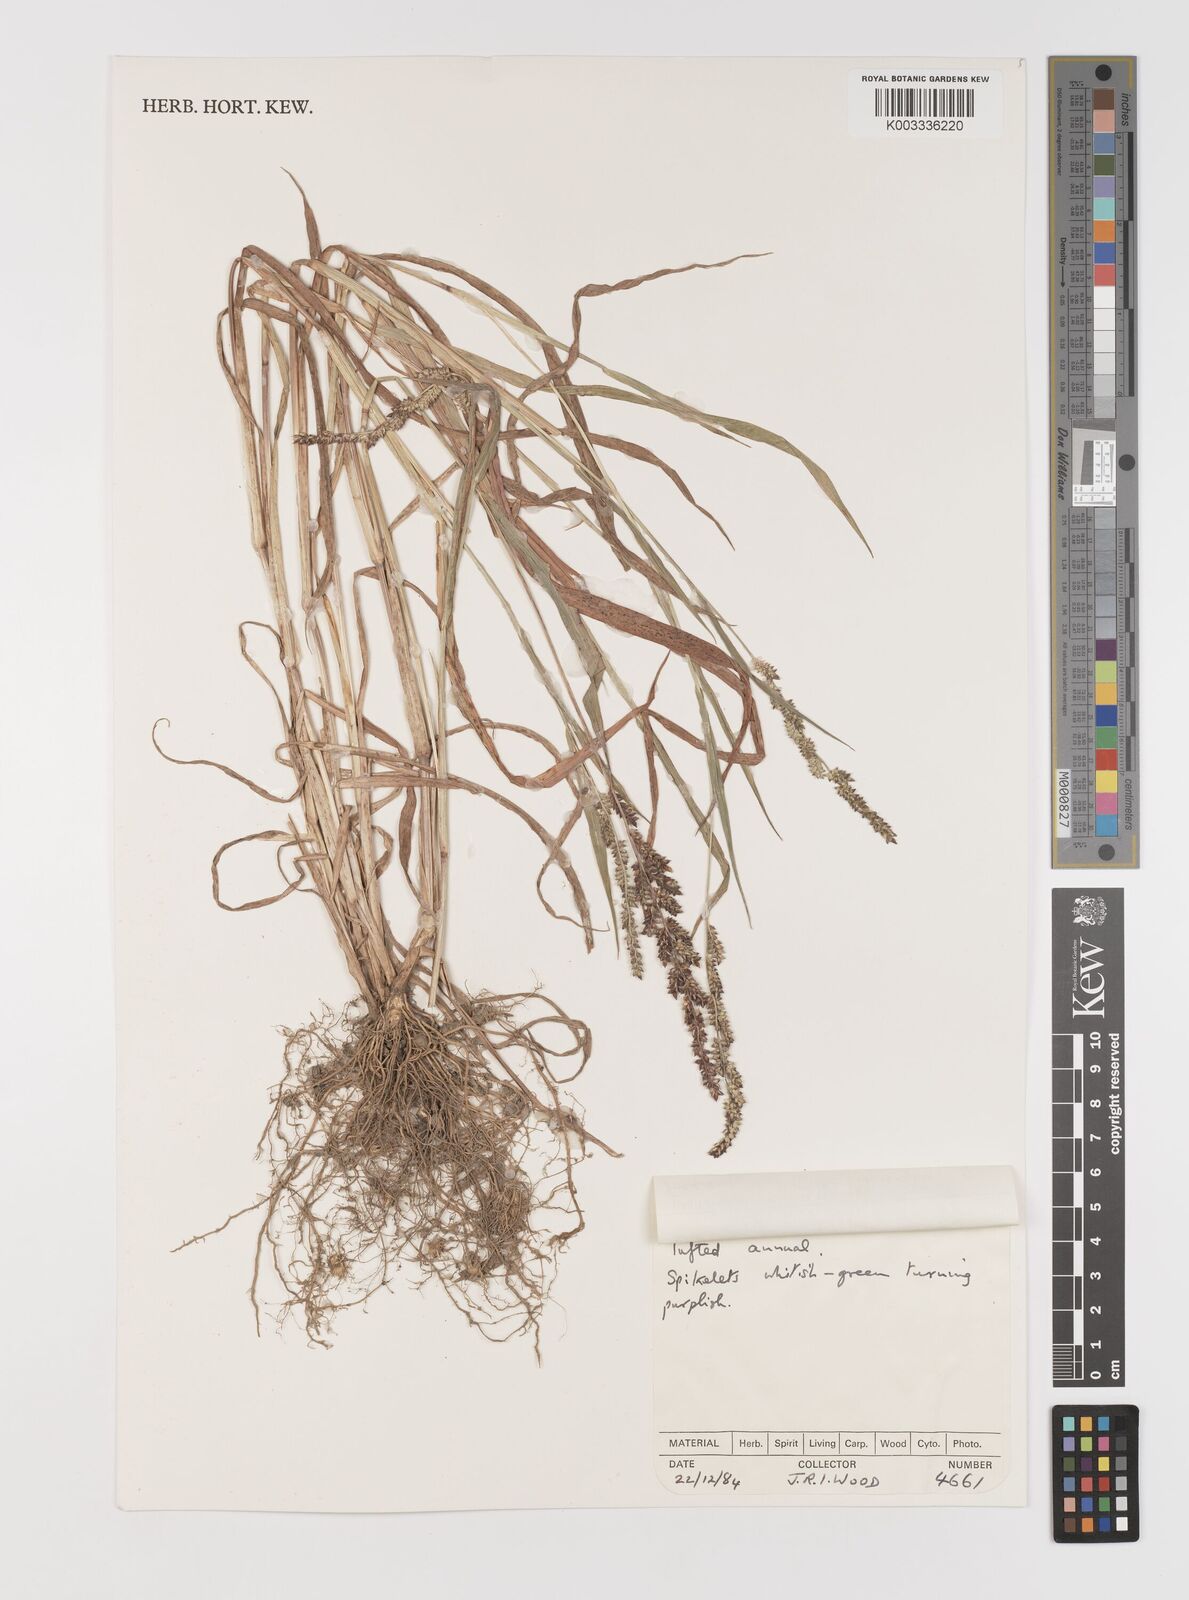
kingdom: Plantae
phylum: Tracheophyta
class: Liliopsida
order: Poales
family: Poaceae
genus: Echinochloa
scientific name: Echinochloa colonum
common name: Jungle rice
